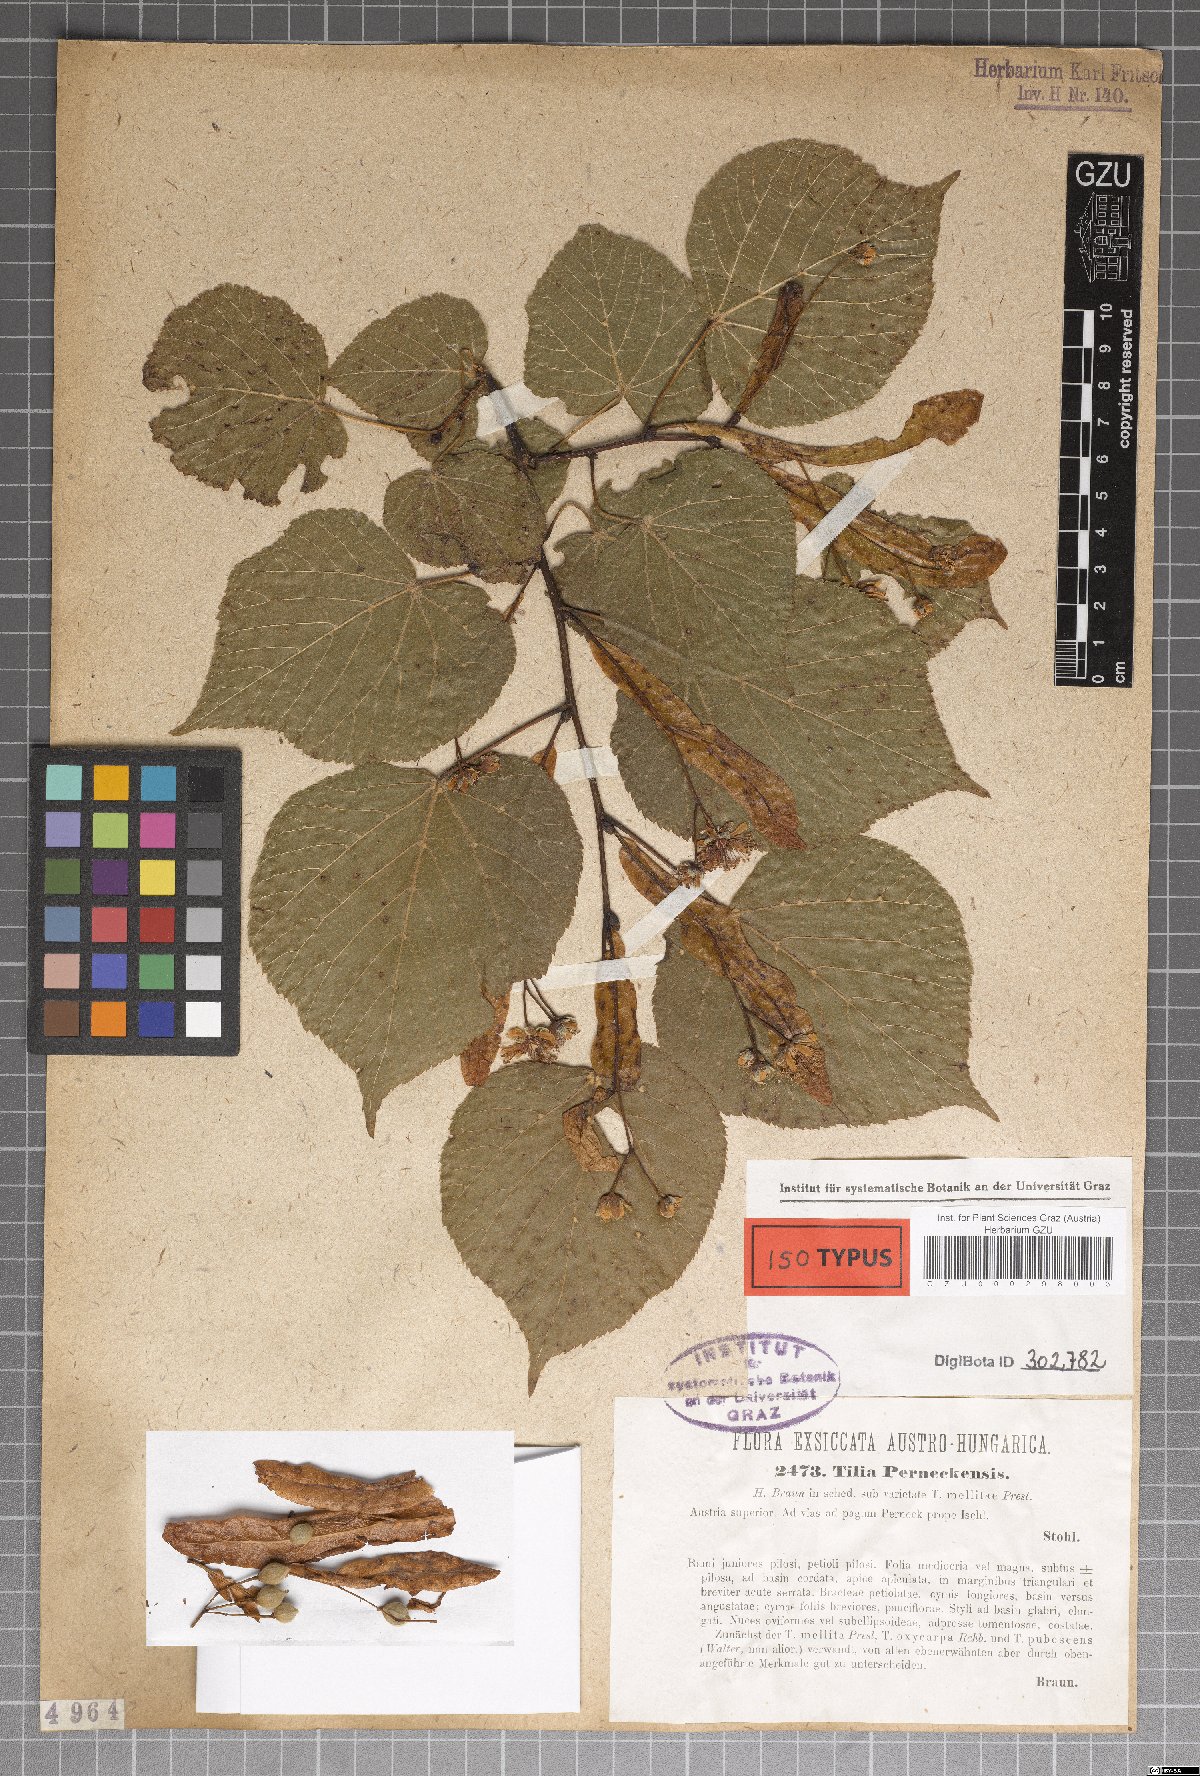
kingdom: Plantae
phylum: Tracheophyta
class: Magnoliopsida
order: Malvales
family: Malvaceae
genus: Tilia
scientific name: Tilia perneckensis
